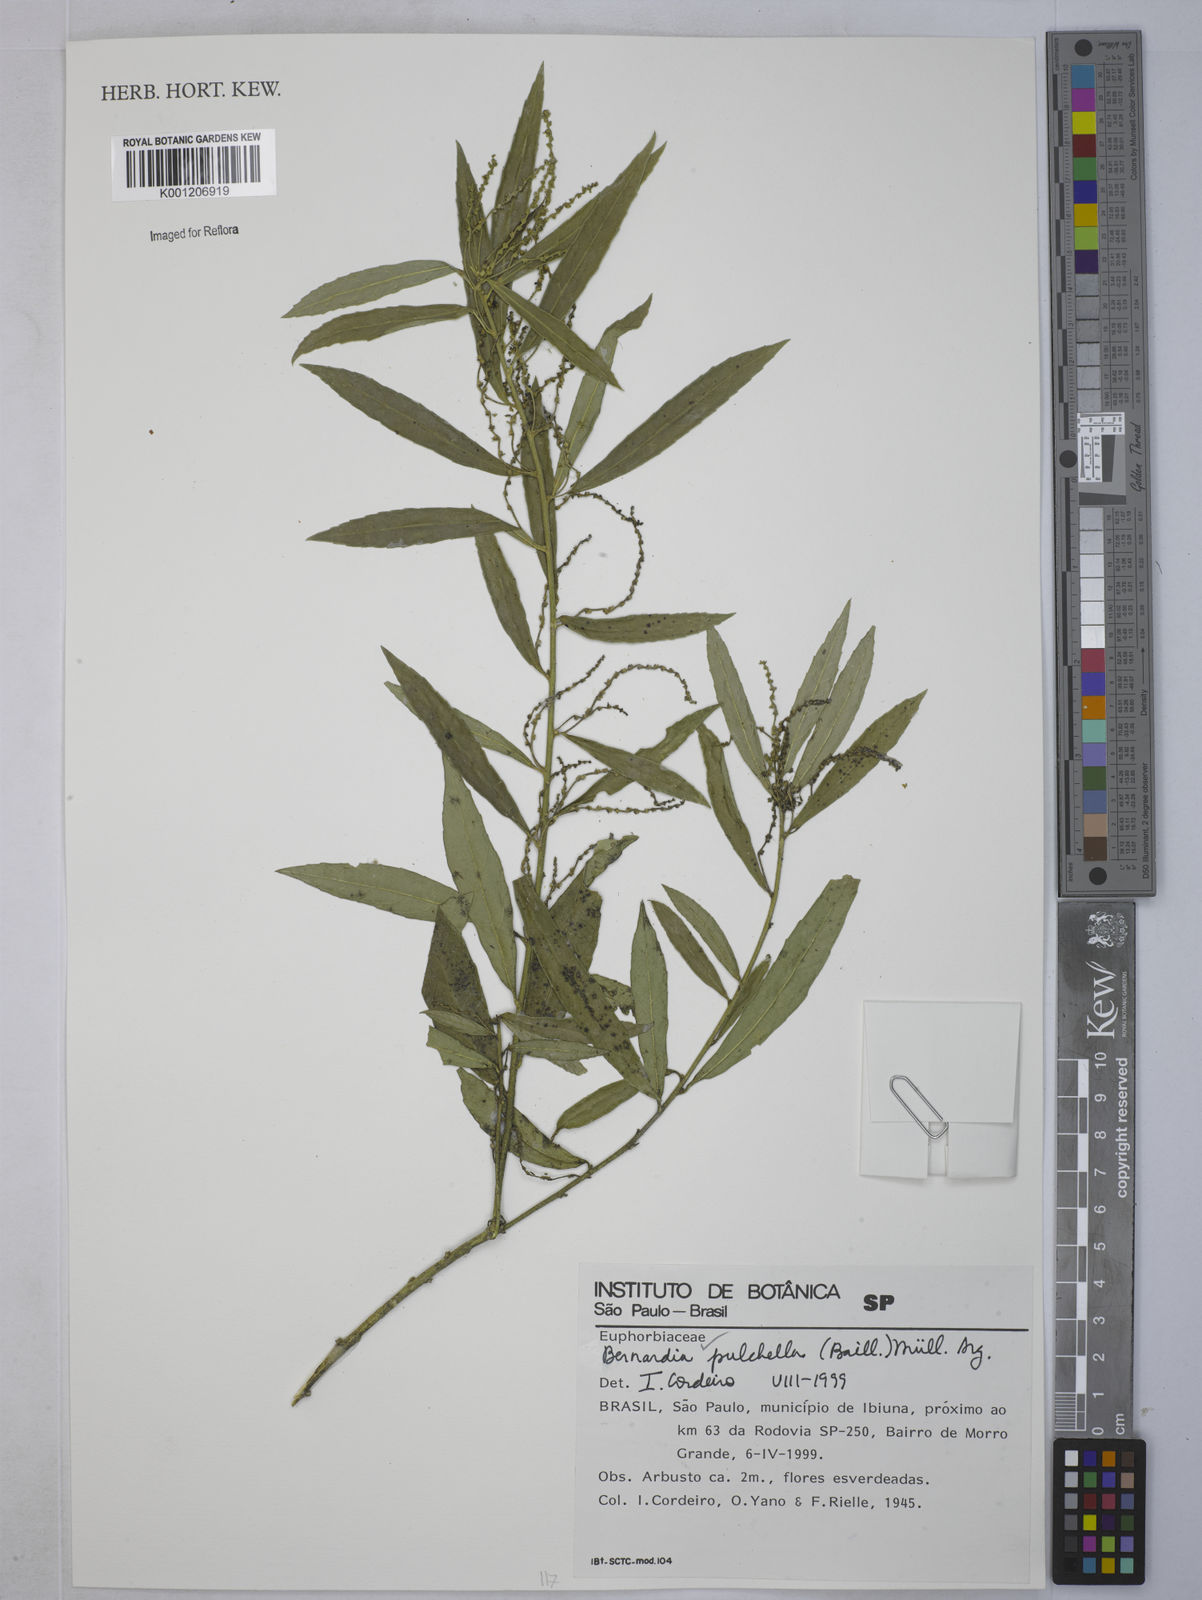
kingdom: Plantae
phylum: Tracheophyta
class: Magnoliopsida
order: Malpighiales
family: Euphorbiaceae
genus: Bernardia
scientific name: Bernardia
